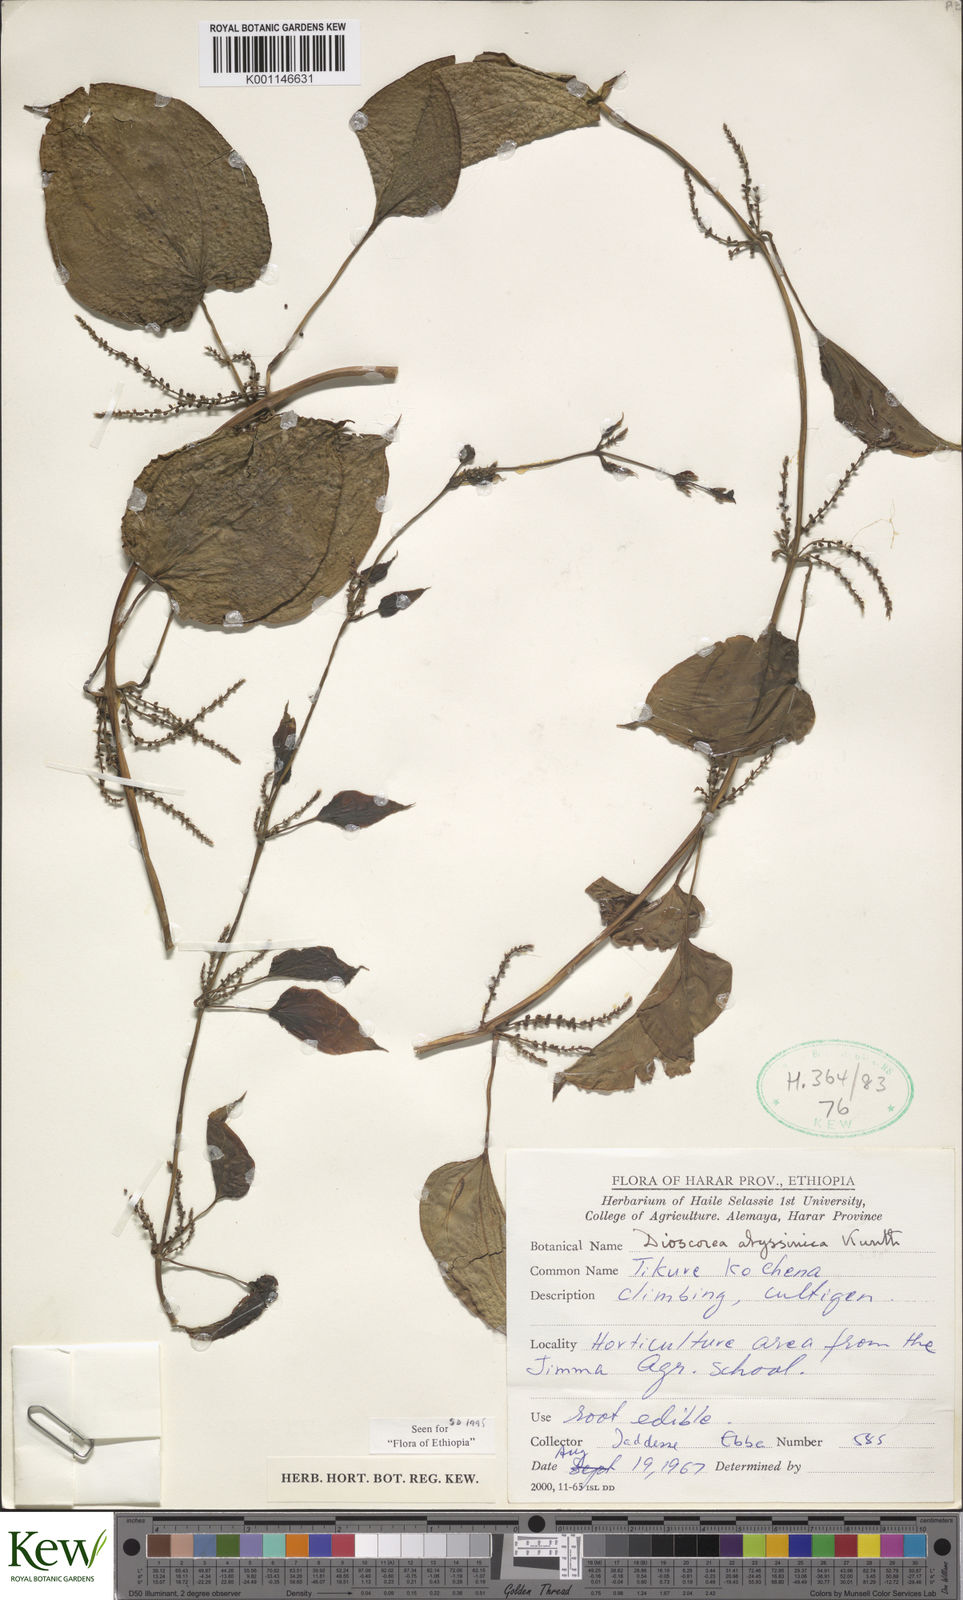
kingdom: Plantae
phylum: Tracheophyta
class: Liliopsida
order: Dioscoreales
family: Dioscoreaceae
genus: Dioscorea
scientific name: Dioscorea abyssinica
